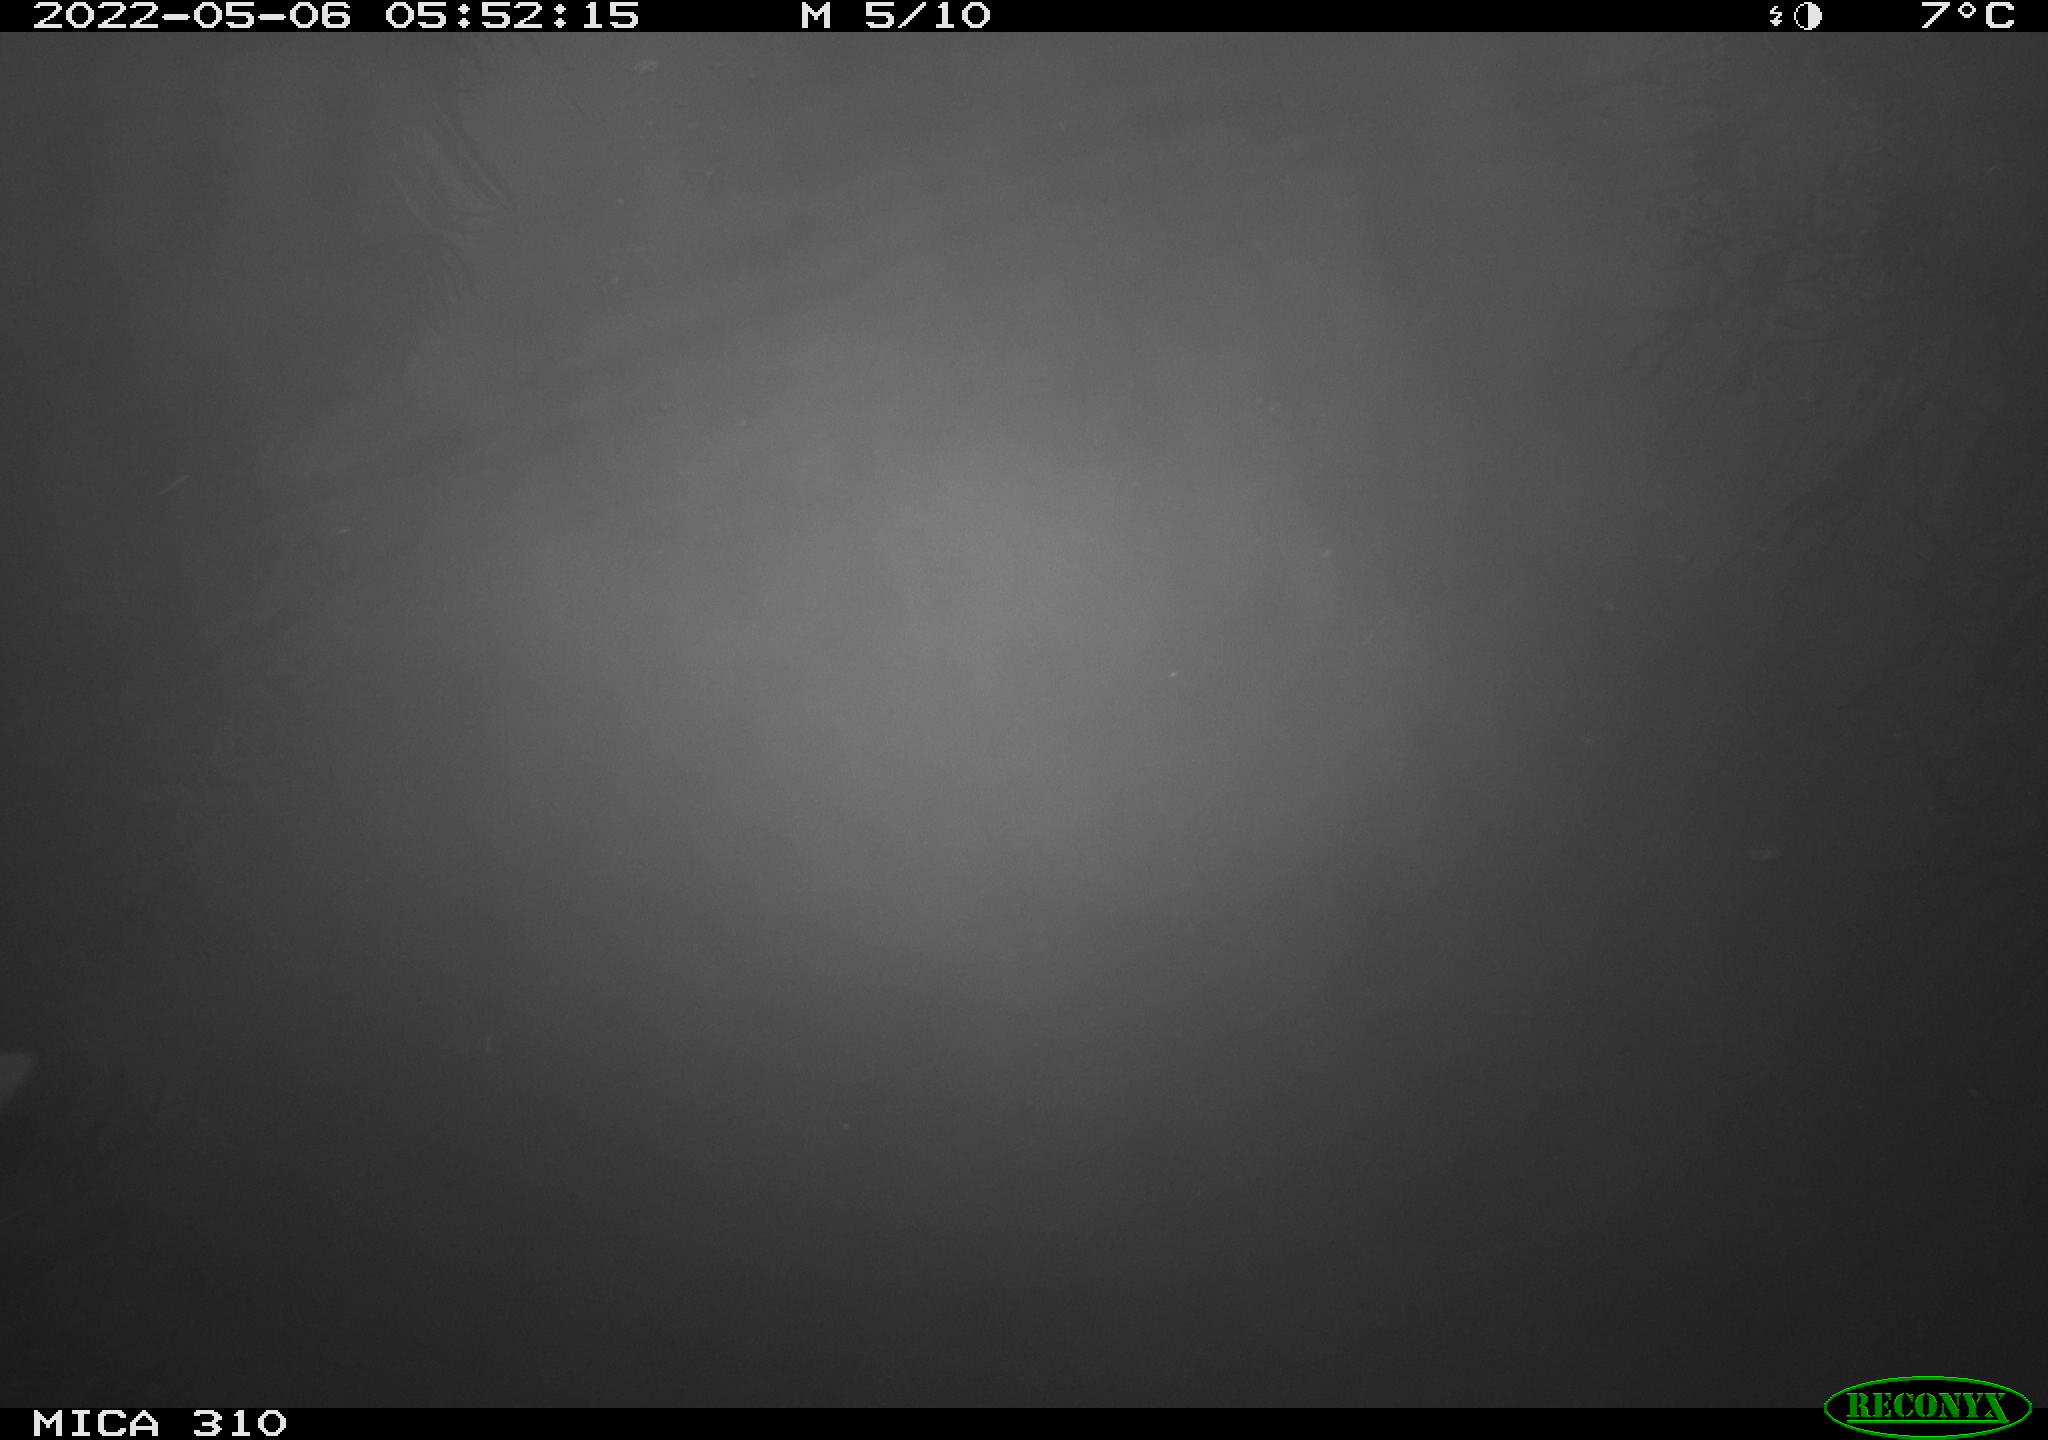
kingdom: Animalia
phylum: Chordata
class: Aves
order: Gruiformes
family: Rallidae
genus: Fulica
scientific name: Fulica atra
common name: Eurasian coot
